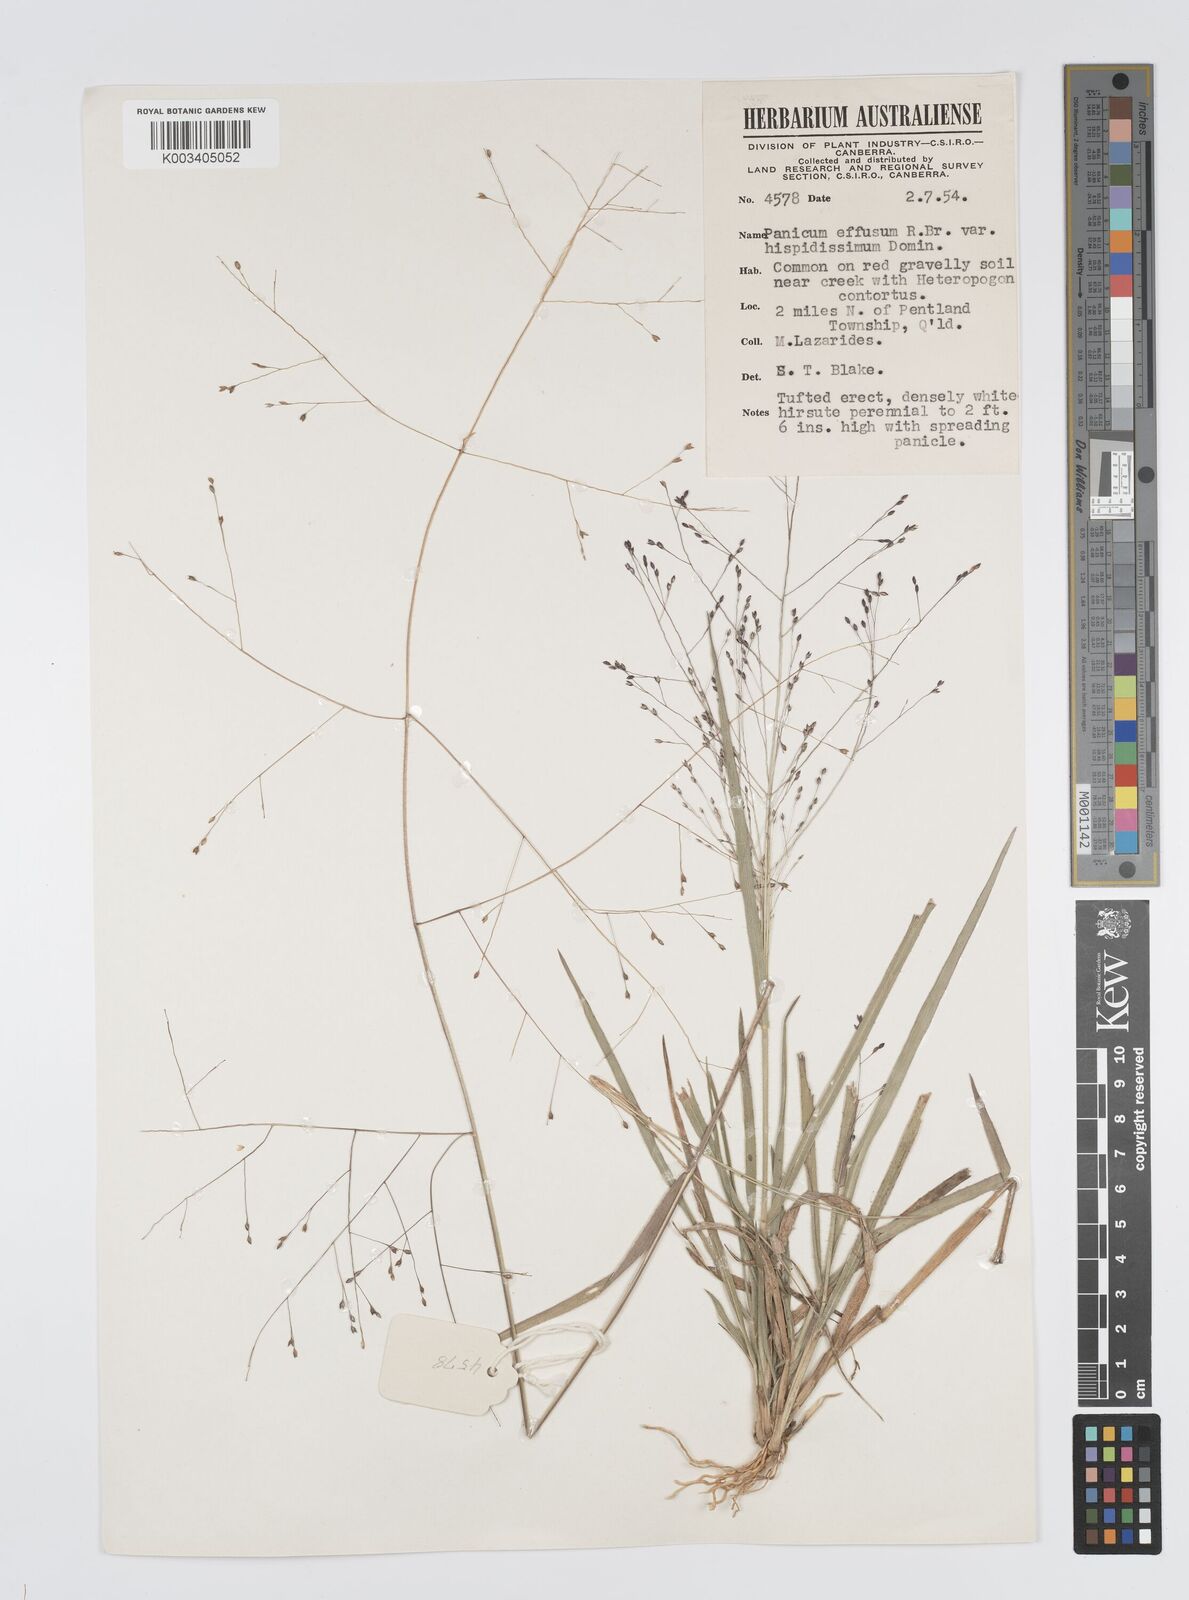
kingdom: Plantae
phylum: Tracheophyta
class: Liliopsida
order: Poales
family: Poaceae
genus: Panicum
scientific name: Panicum effusum
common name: Hairy panic grass
